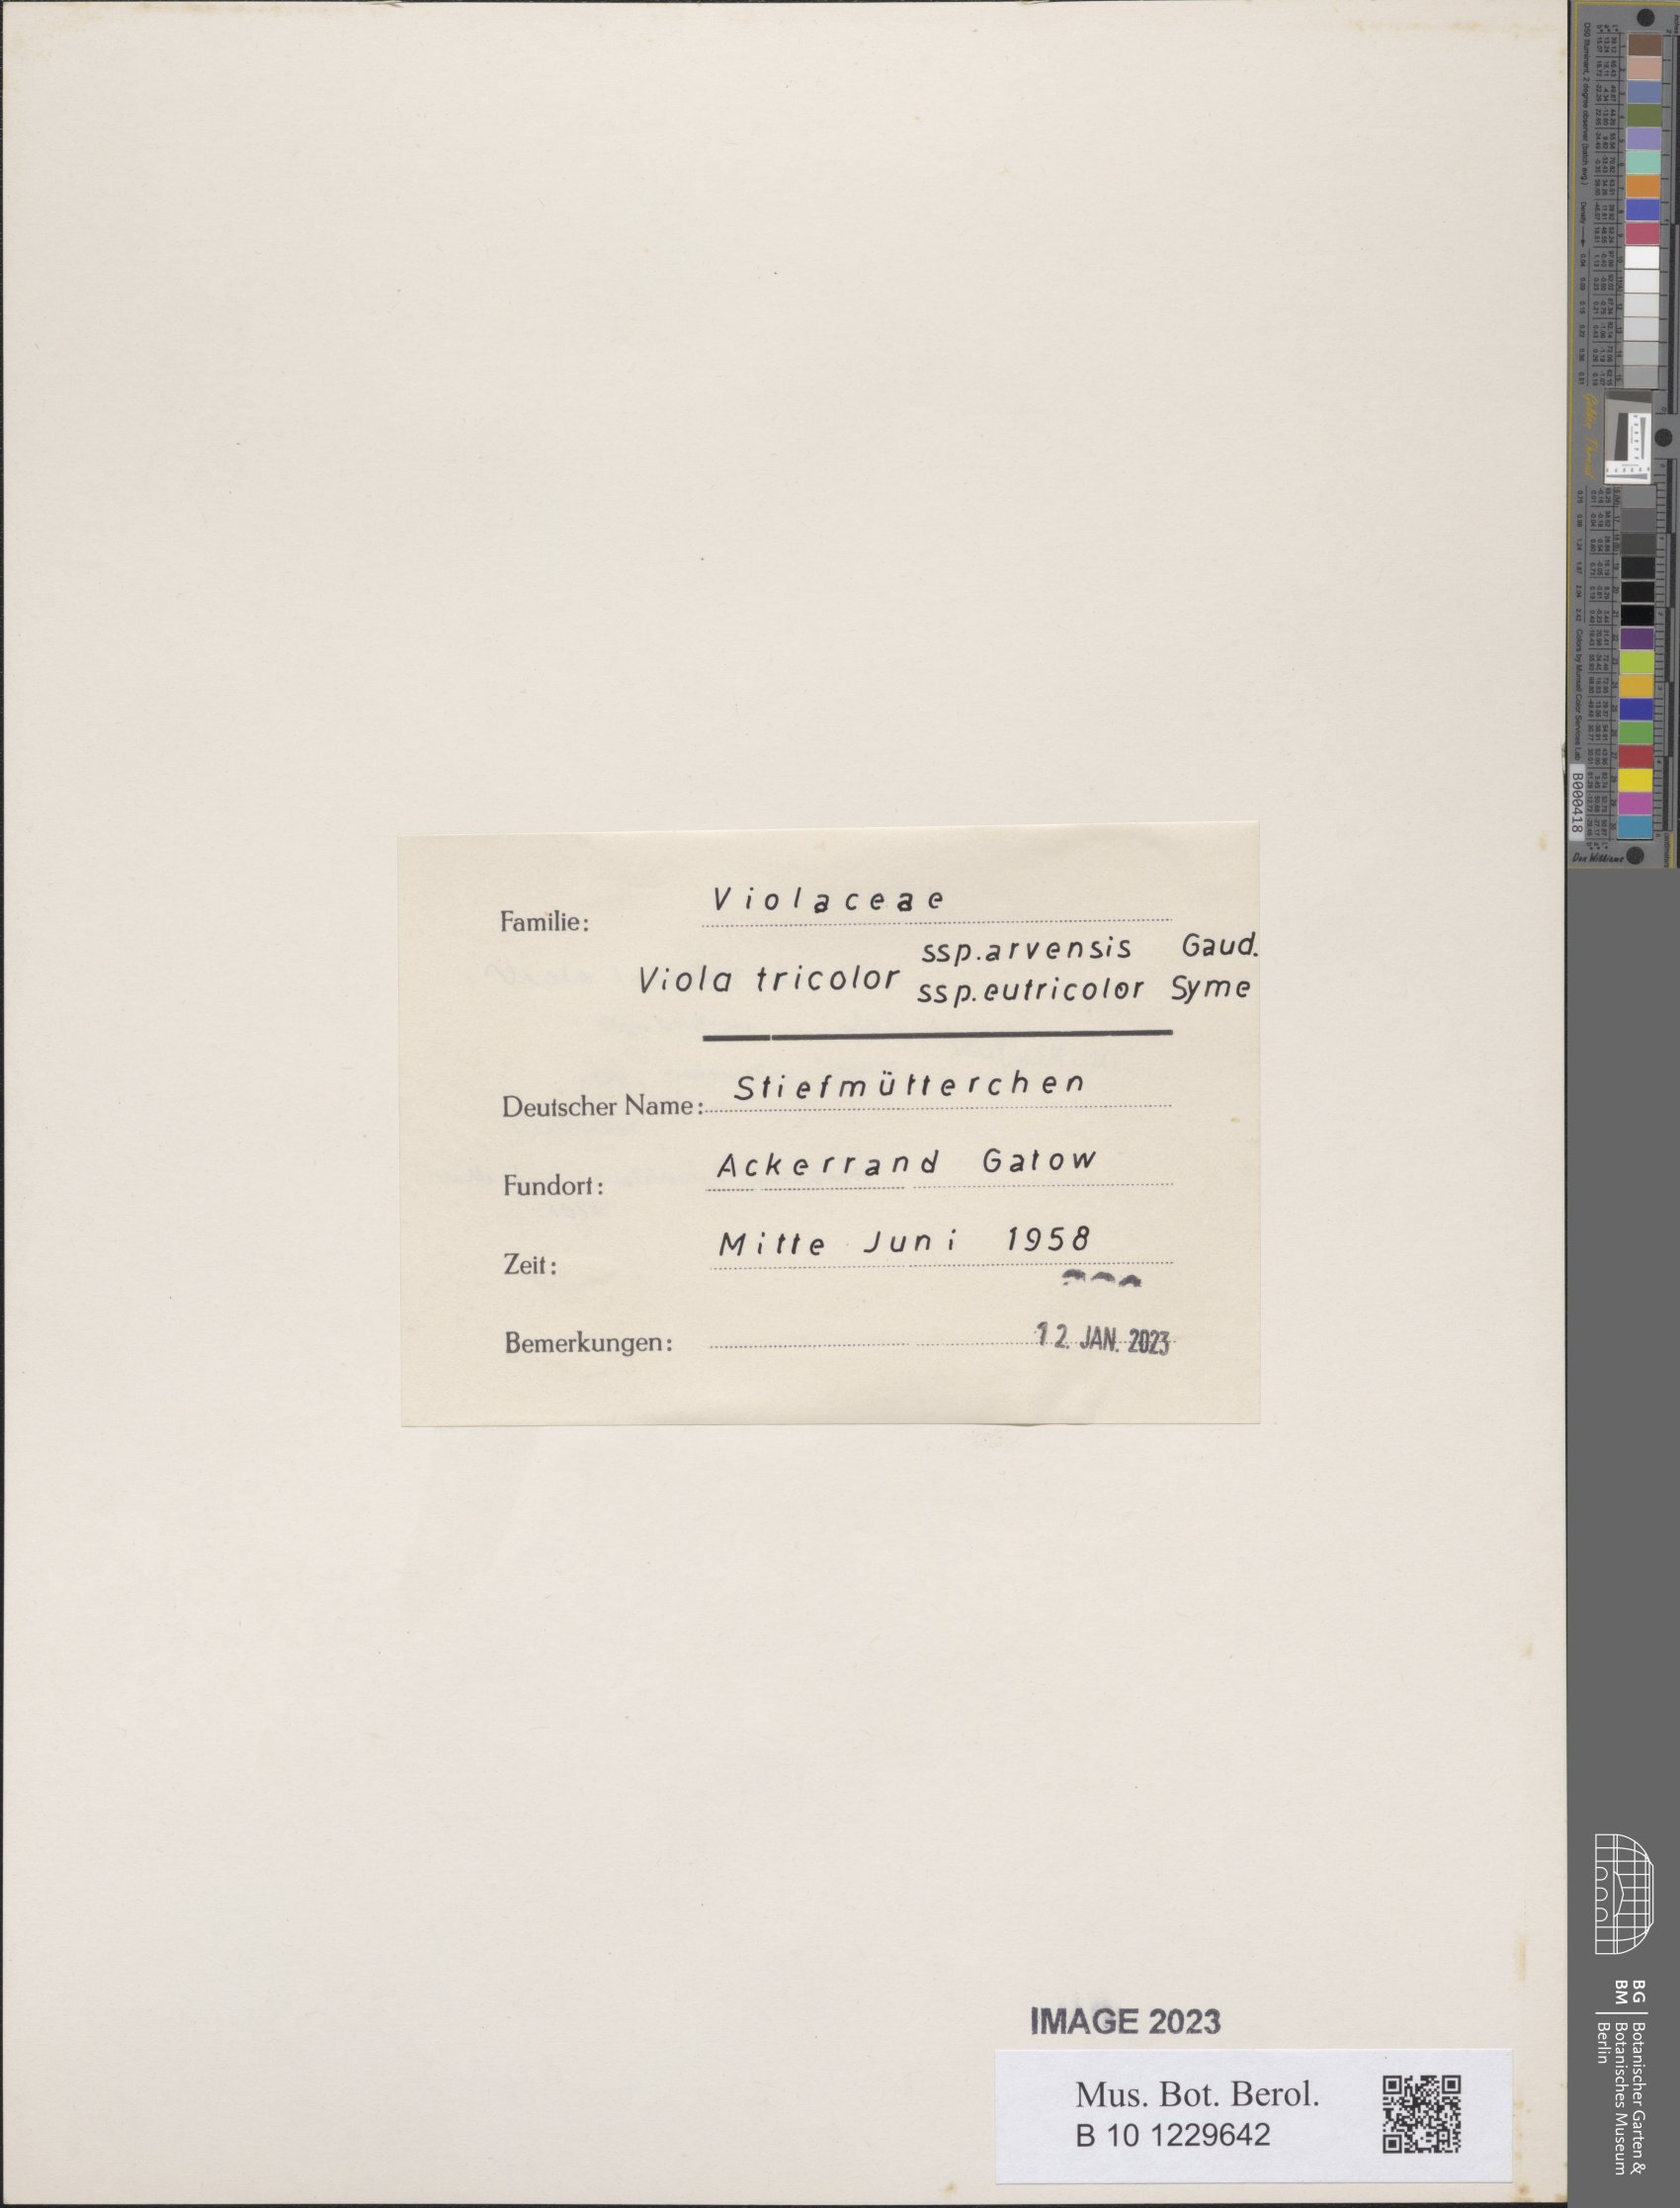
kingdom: Plantae
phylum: Tracheophyta
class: Magnoliopsida
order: Malpighiales
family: Violaceae
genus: Viola
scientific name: Viola arvensis
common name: Field pansy
